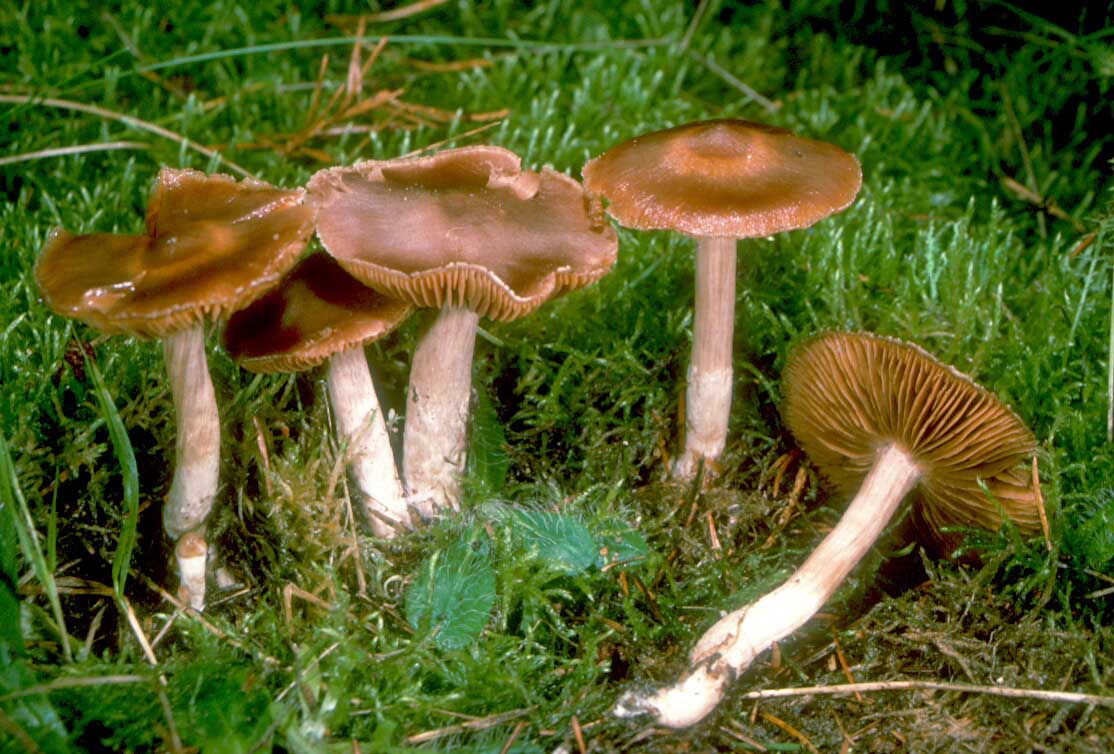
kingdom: Fungi
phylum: Basidiomycota
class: Agaricomycetes
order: Agaricales
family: Cortinariaceae
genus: Cortinarius
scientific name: Cortinarius kauffmanianus
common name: plantage-slørhat
